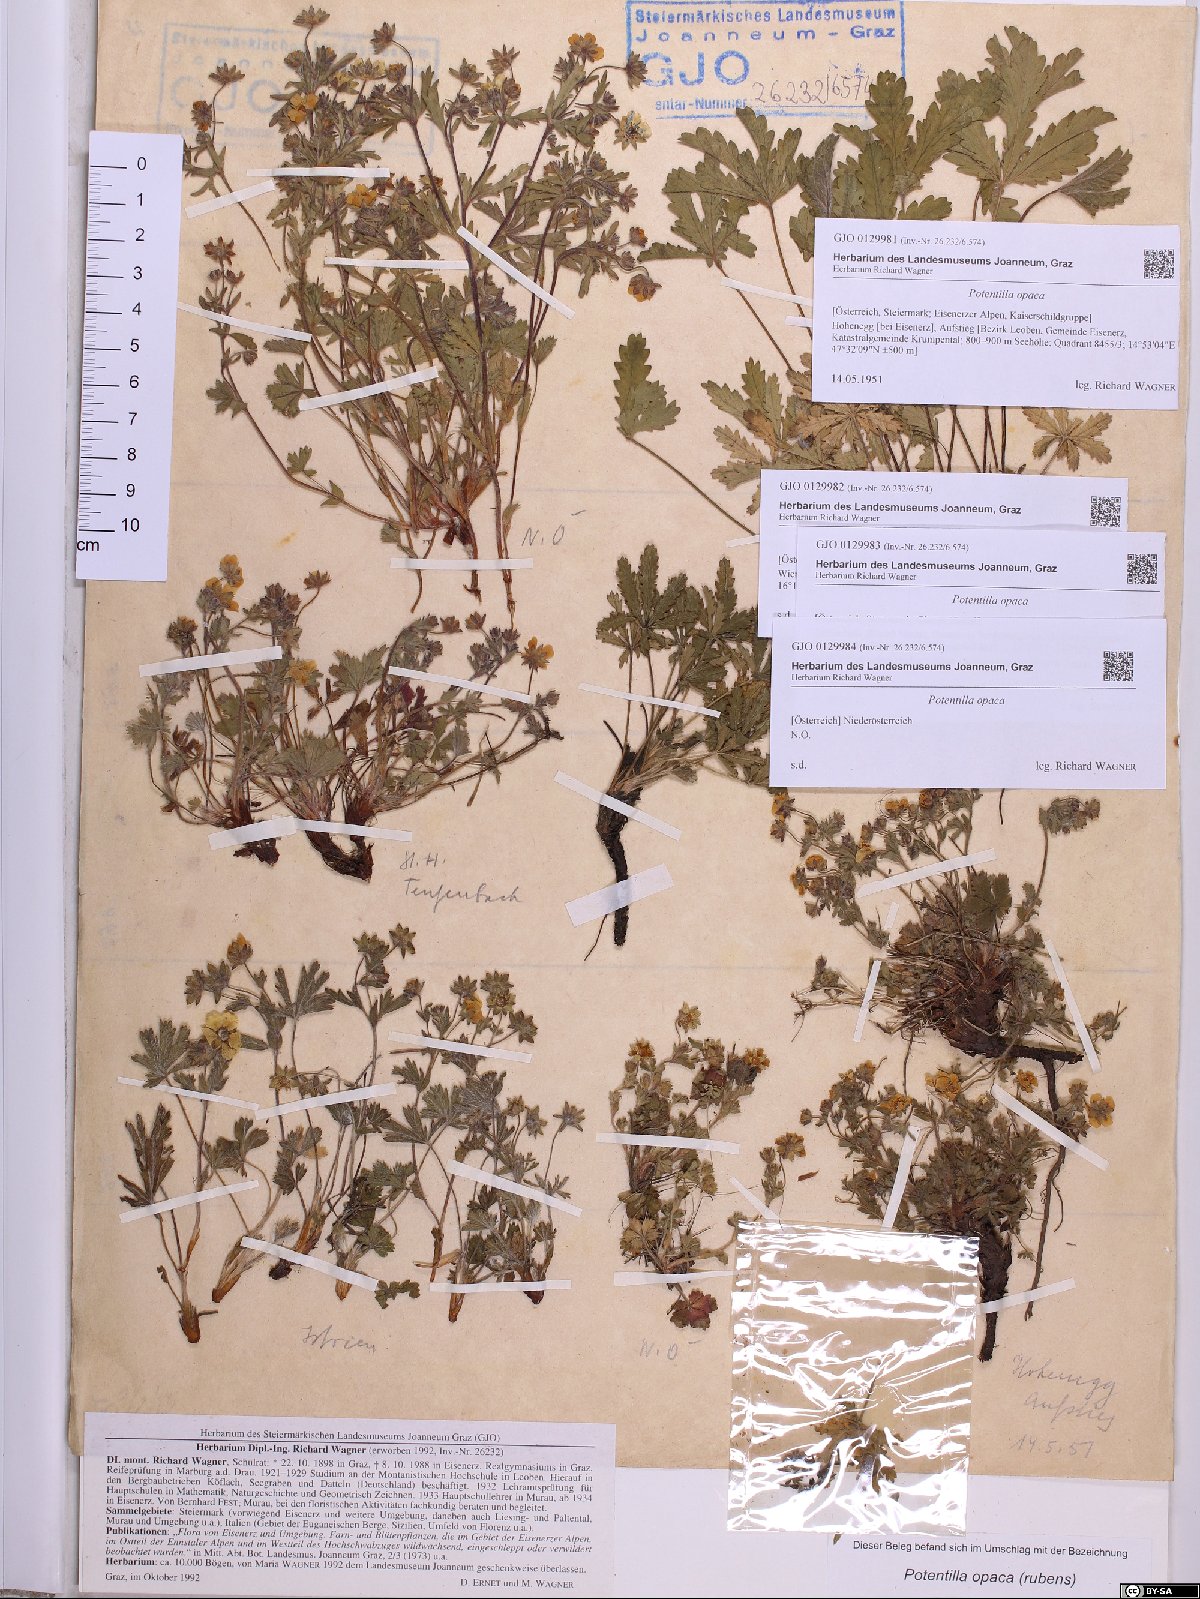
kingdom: Plantae
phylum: Tracheophyta
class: Magnoliopsida
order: Rosales
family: Rosaceae
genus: Potentilla
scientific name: Potentilla
